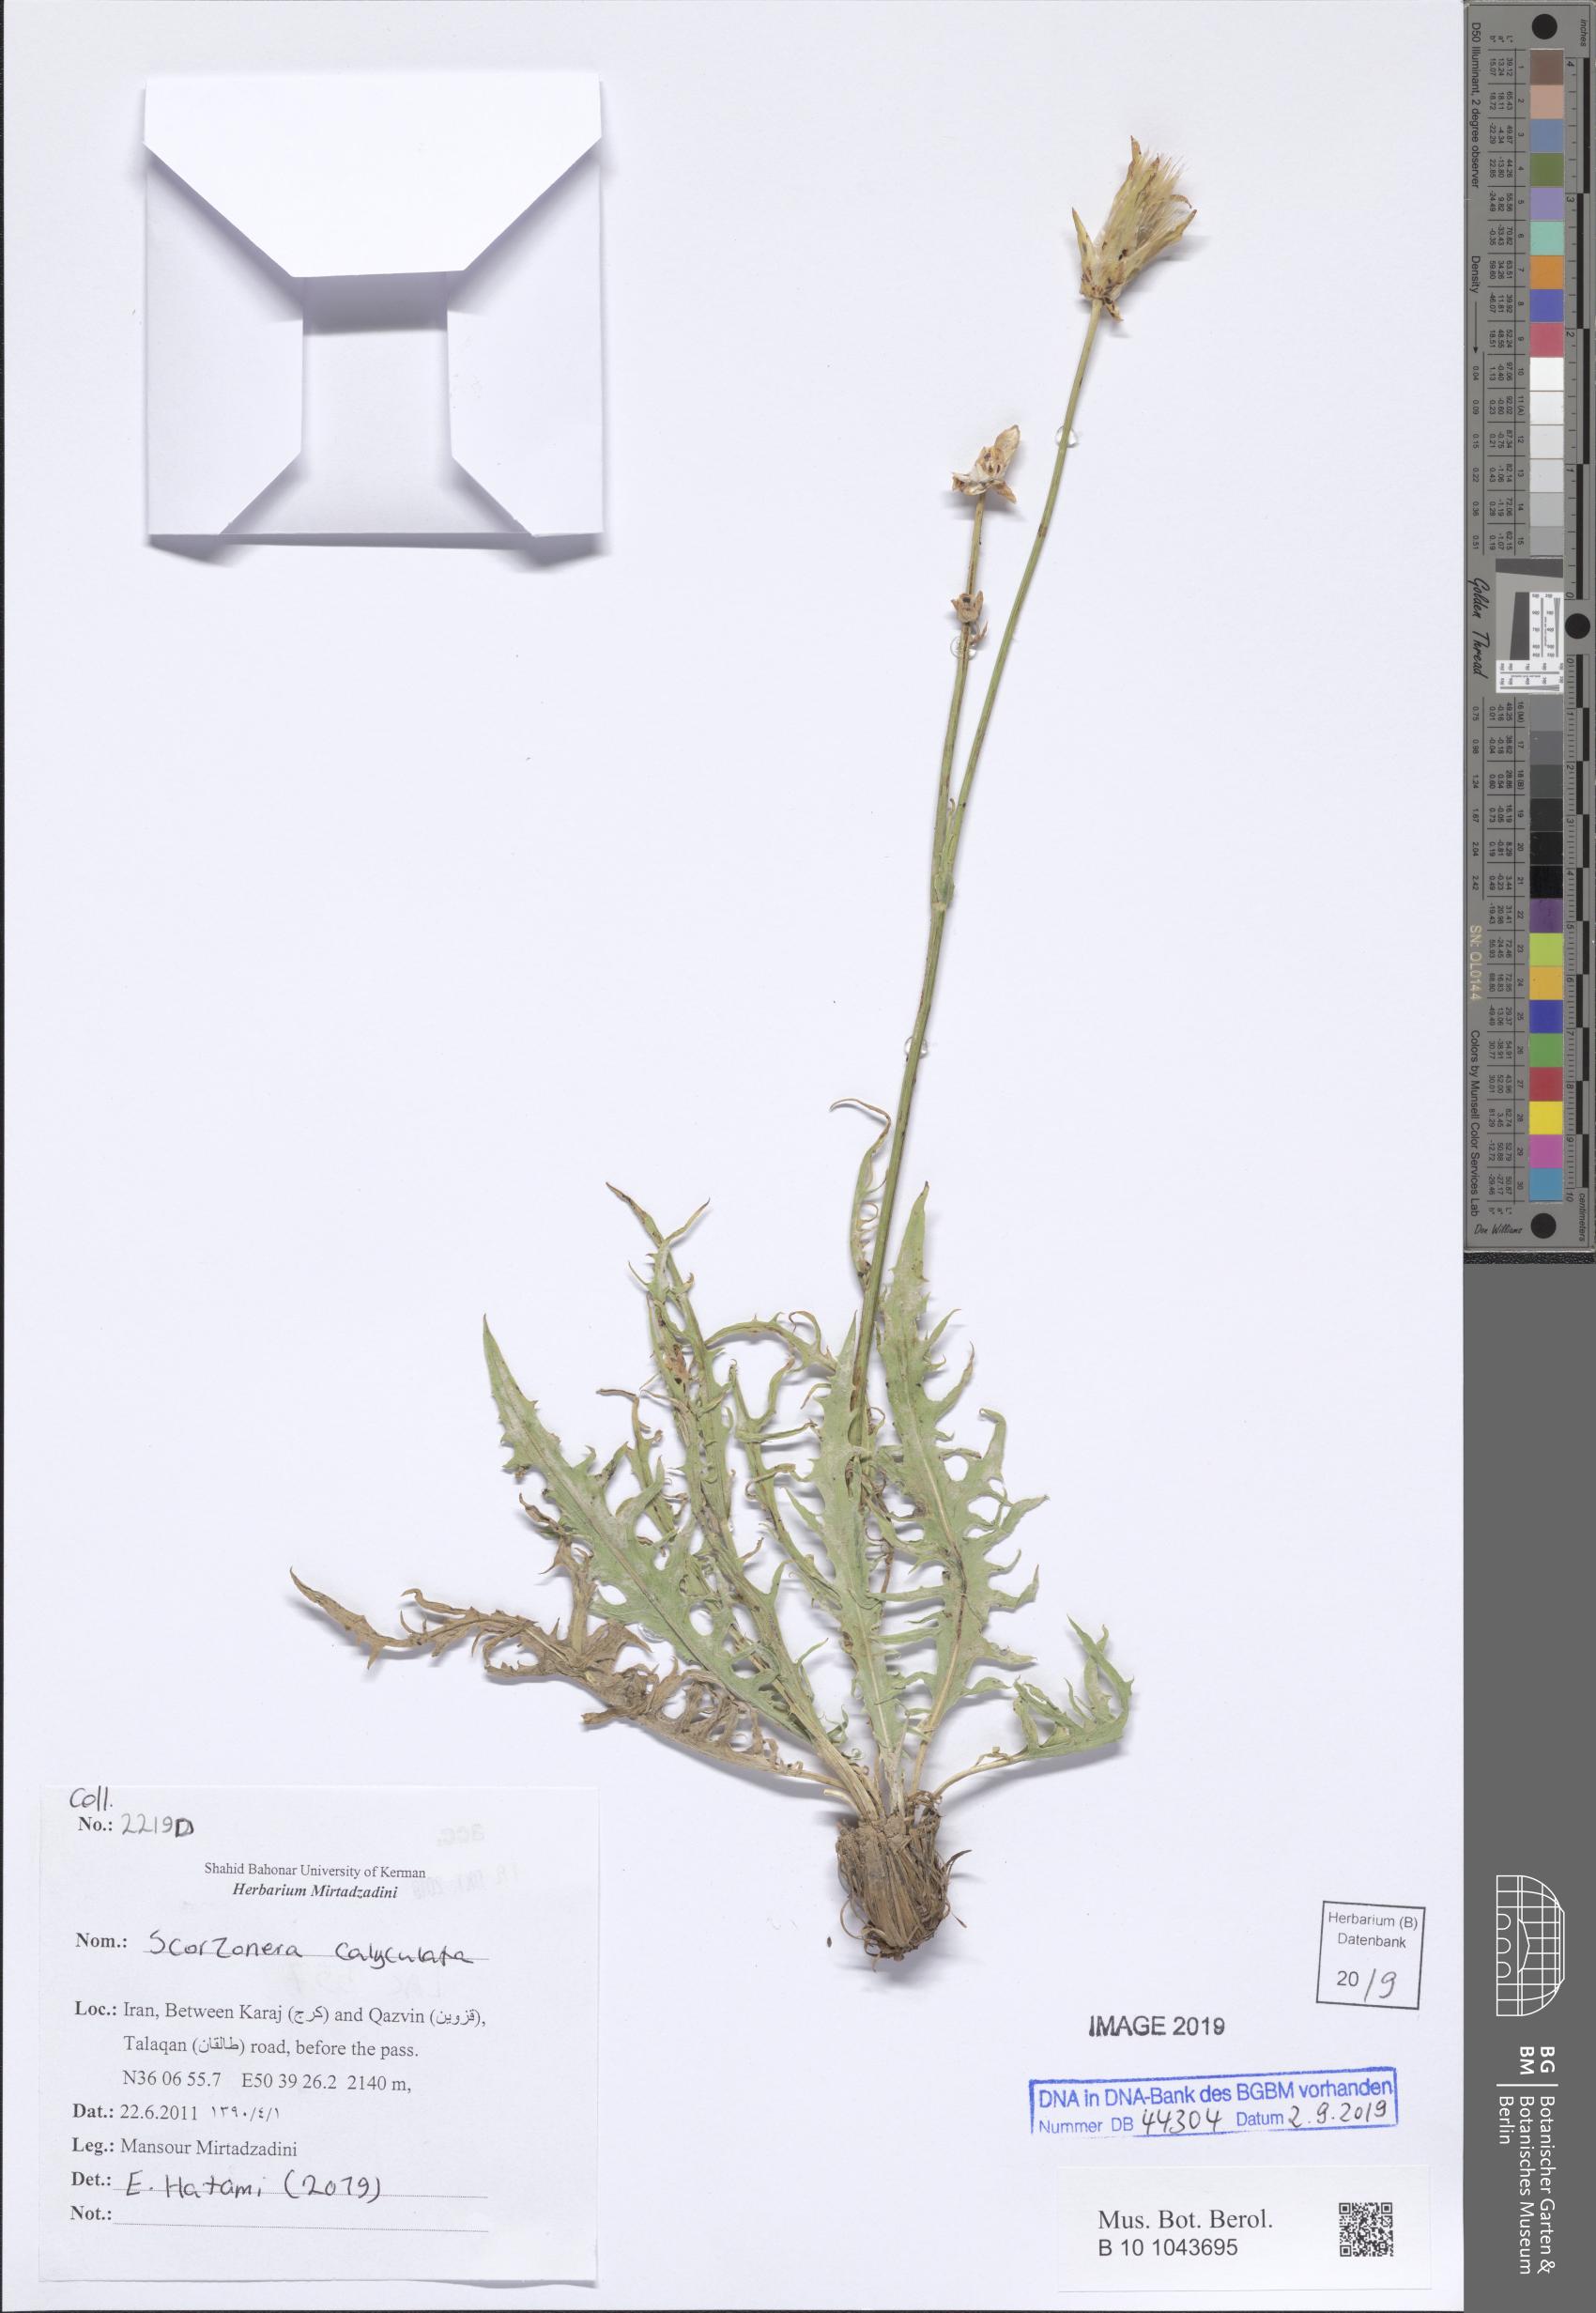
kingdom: Plantae
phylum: Tracheophyta
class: Magnoliopsida
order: Asterales
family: Asteraceae
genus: Aslia
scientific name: Aslia calyculata
